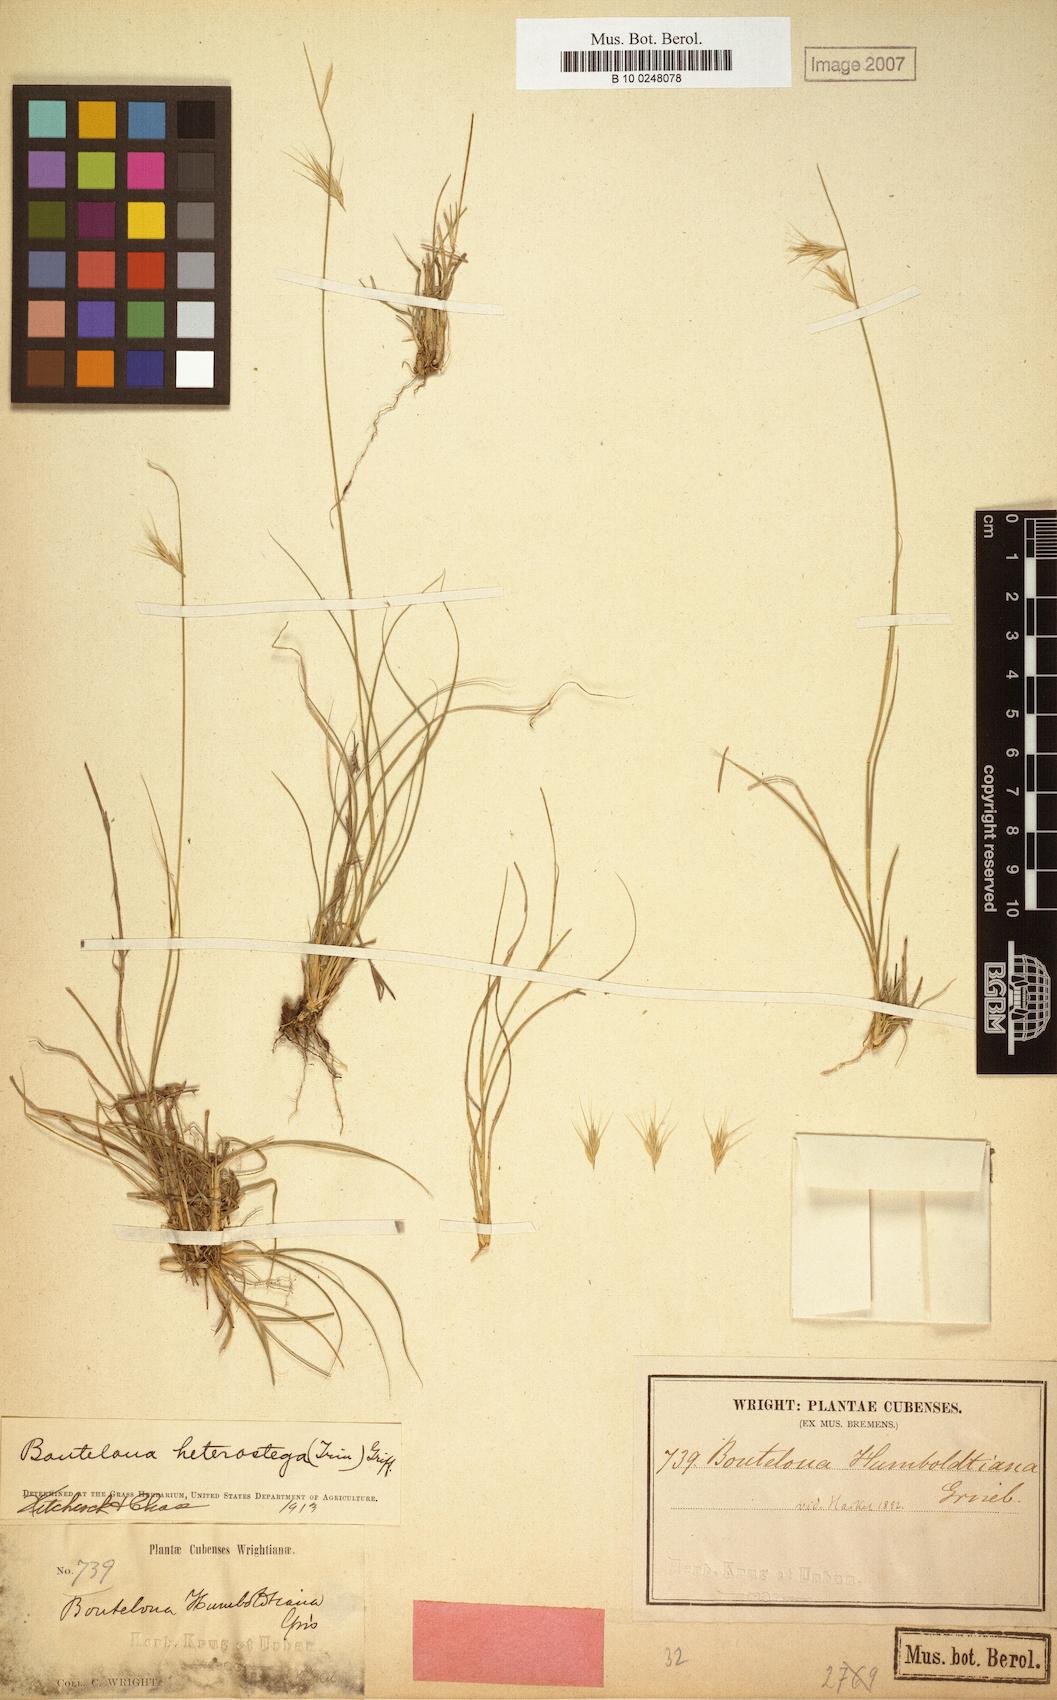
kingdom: Plantae
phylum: Tracheophyta
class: Liliopsida
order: Poales
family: Poaceae
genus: Bouteloua
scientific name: Bouteloua repens
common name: Slender grama
